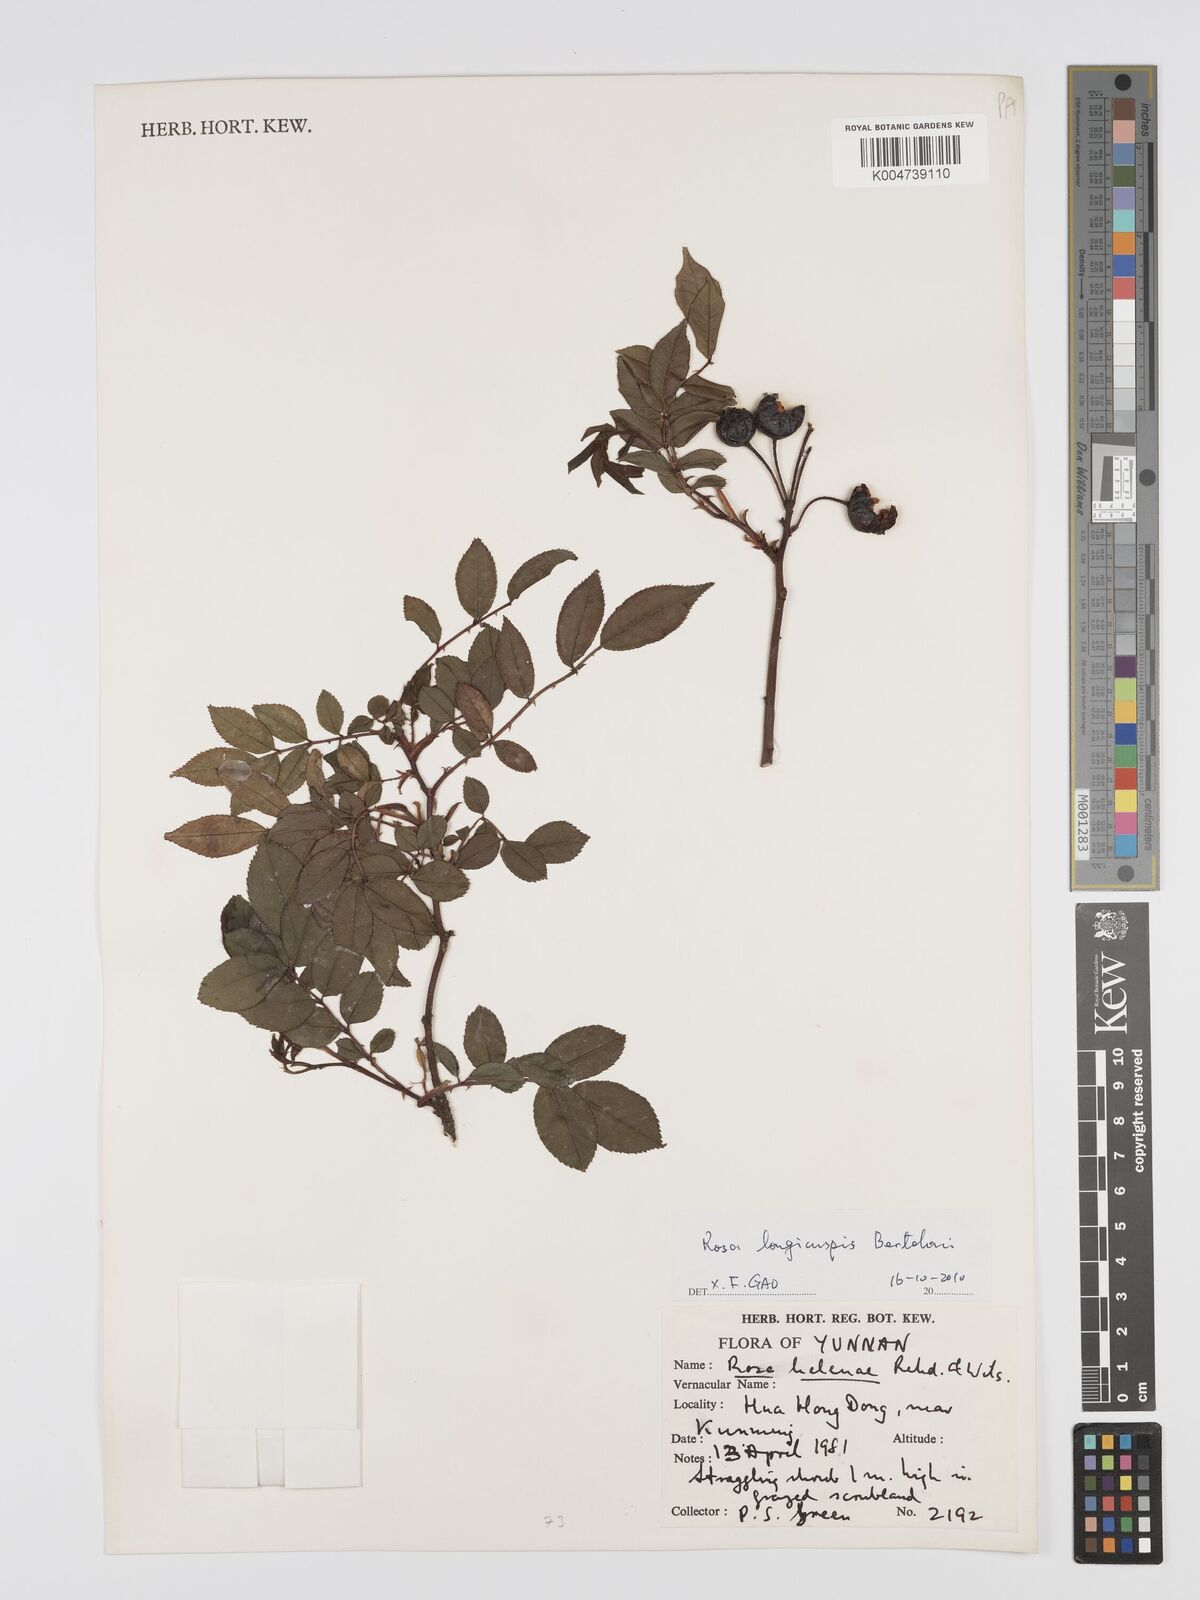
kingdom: Plantae
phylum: Tracheophyta
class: Magnoliopsida
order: Rosales
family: Rosaceae
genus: Rosa
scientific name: Rosa longicuspis
